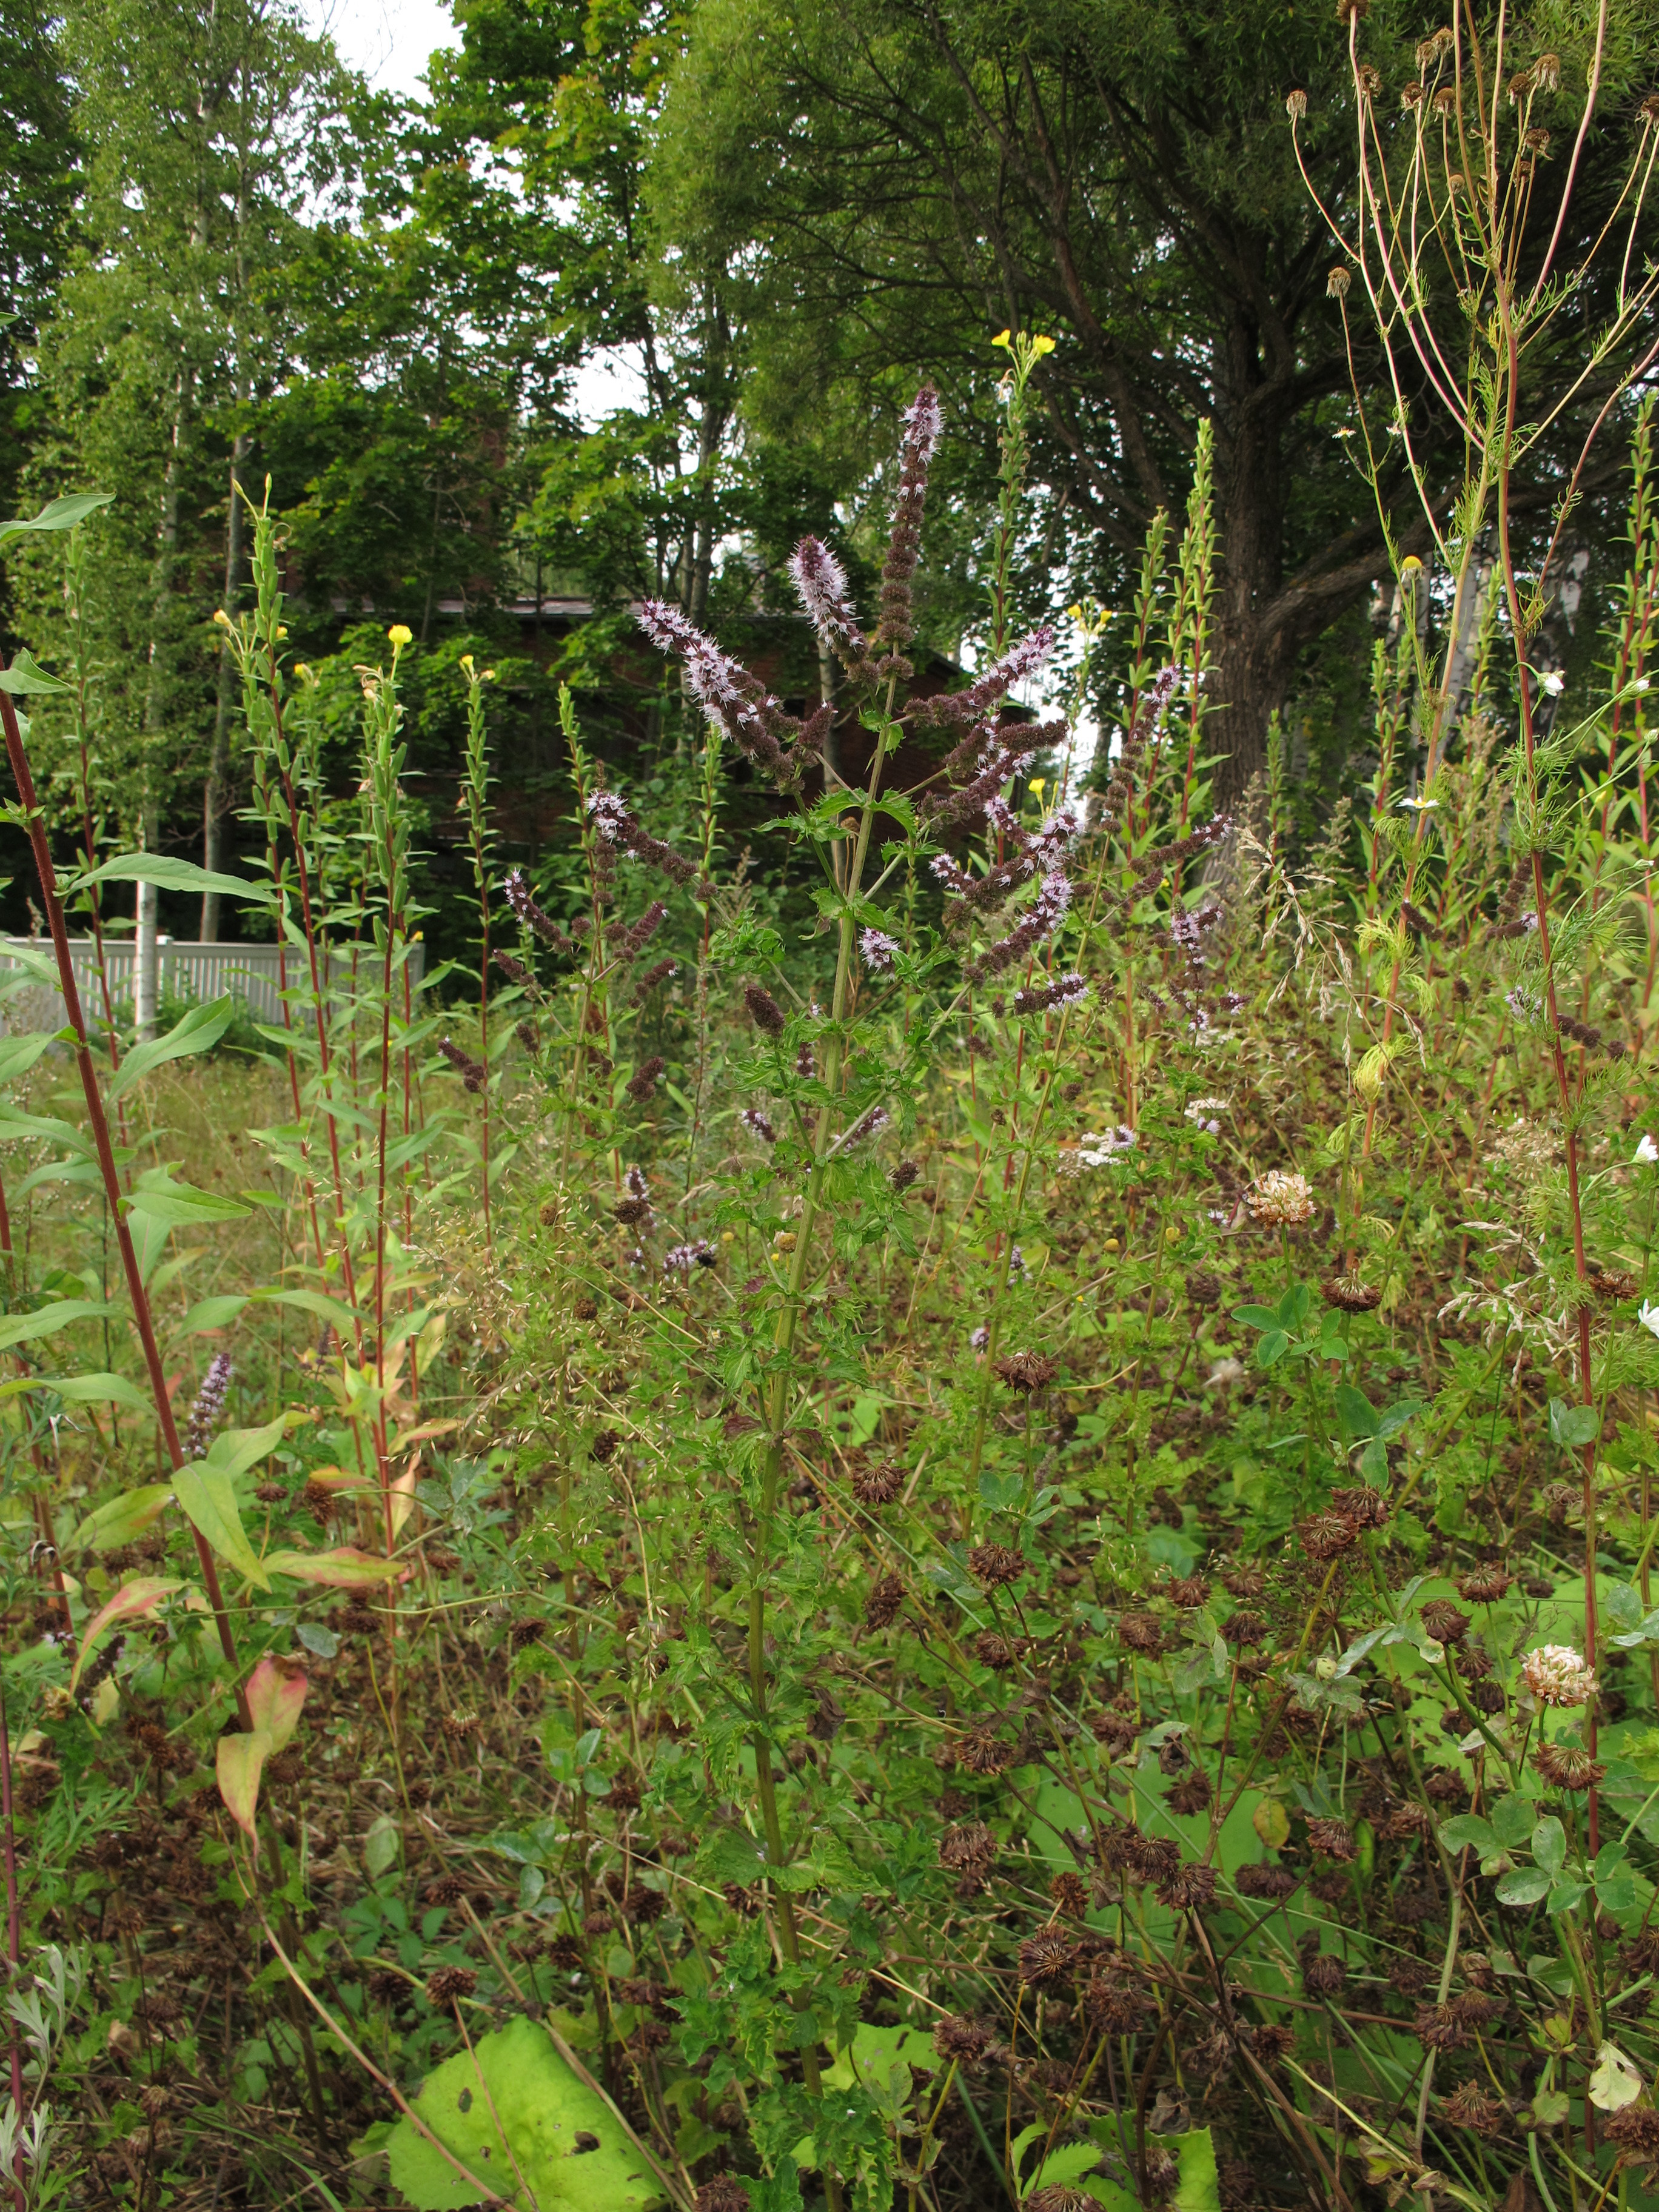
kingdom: Plantae
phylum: Tracheophyta
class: Magnoliopsida
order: Lamiales
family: Lamiaceae
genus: Mentha
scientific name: Mentha spicata
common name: Spearmint
